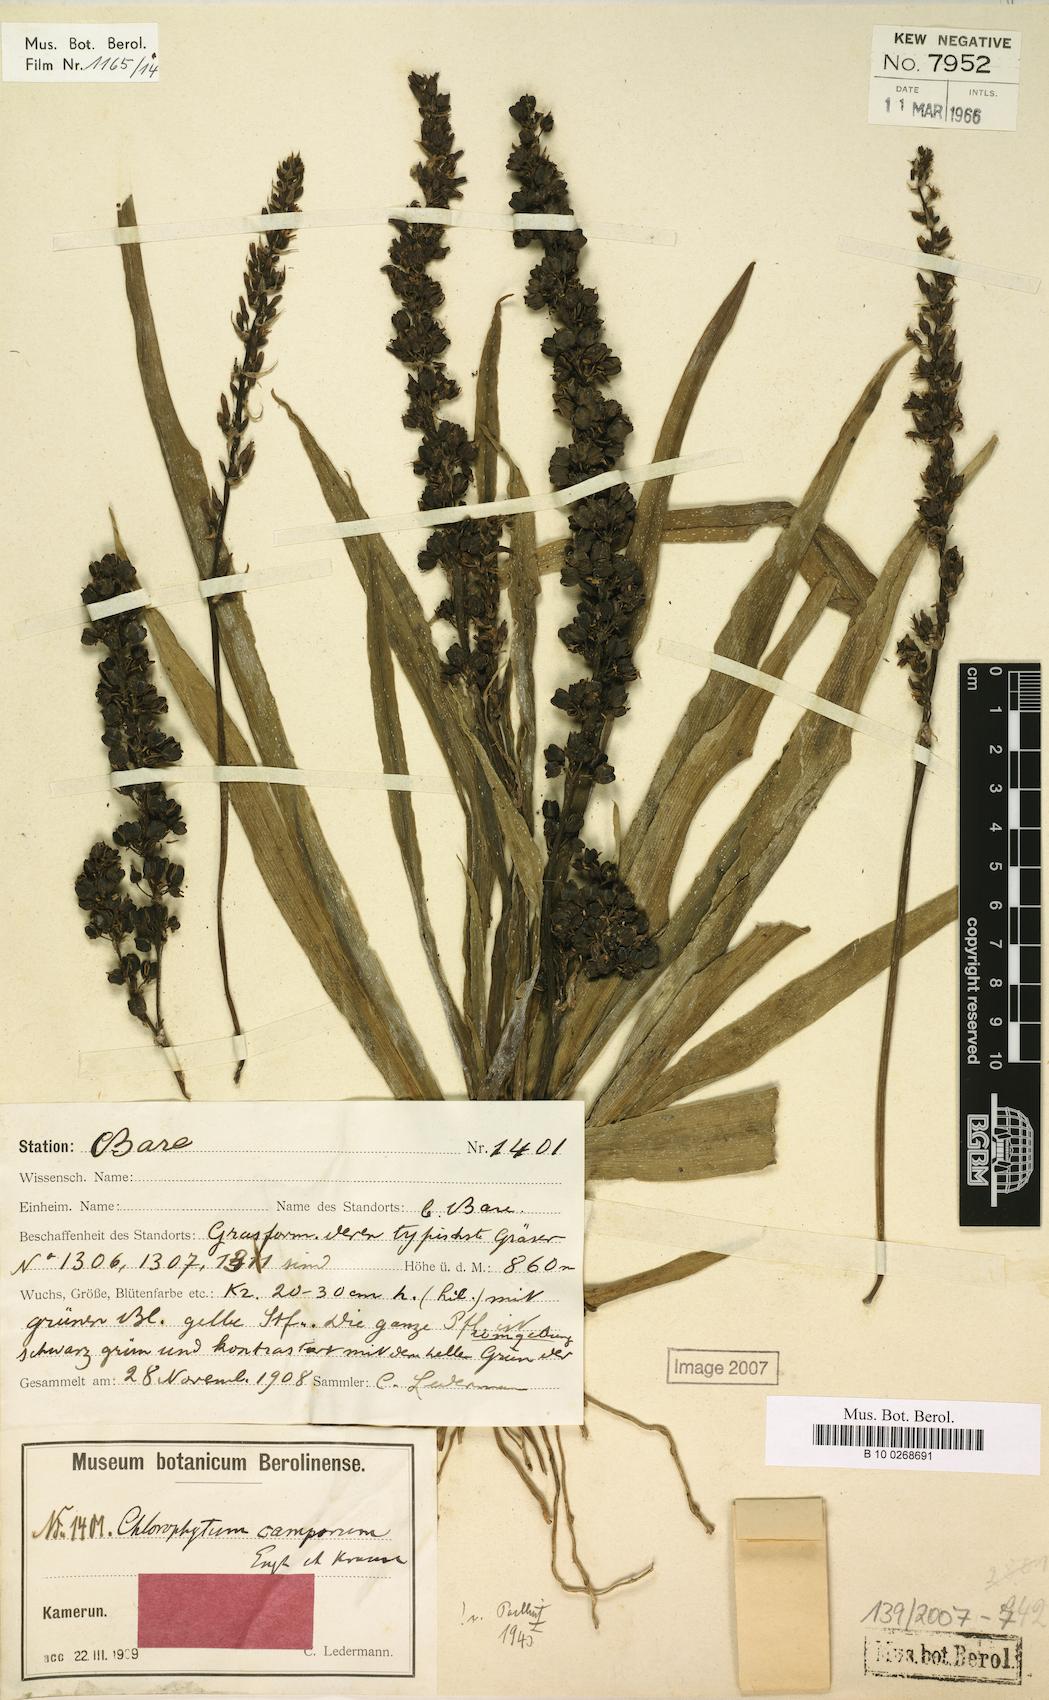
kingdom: Plantae
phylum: Tracheophyta
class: Liliopsida
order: Asparagales
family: Asparagaceae
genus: Chlorophytum
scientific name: Chlorophytum camporum
